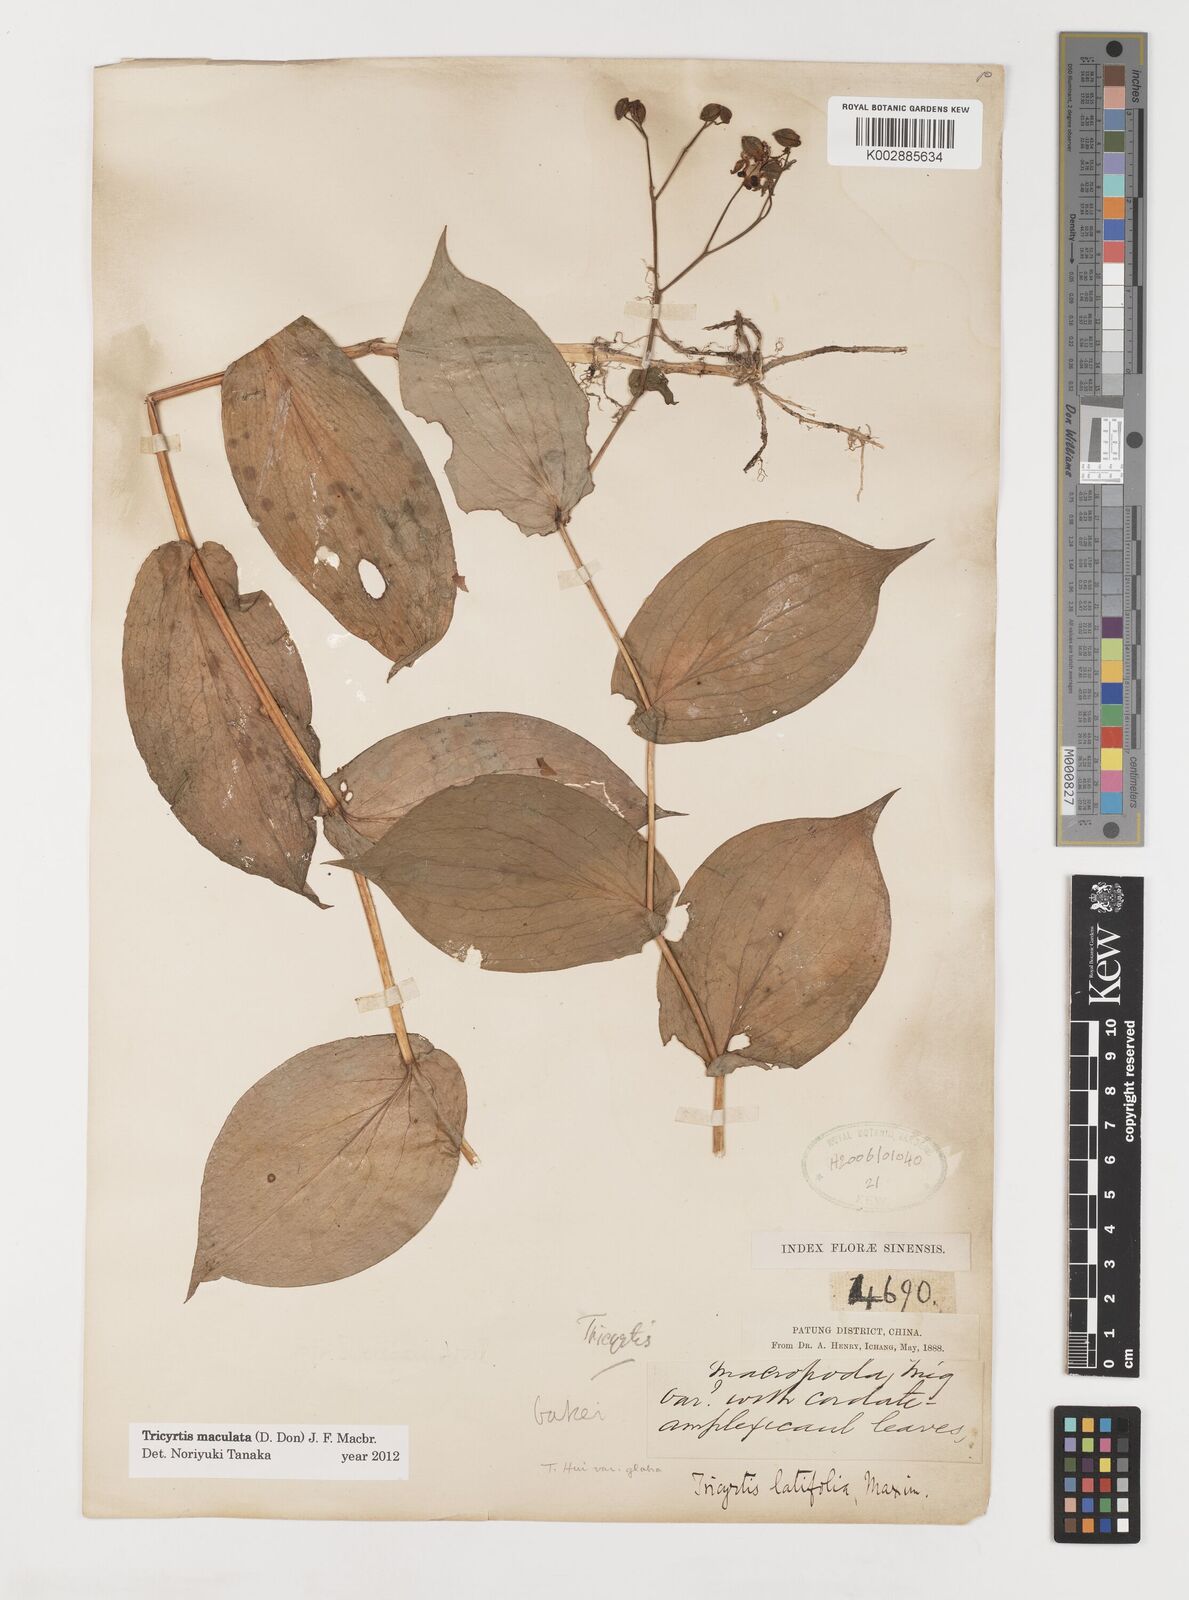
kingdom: Plantae
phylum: Tracheophyta
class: Liliopsida
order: Liliales
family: Liliaceae
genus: Tricyrtis
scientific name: Tricyrtis maculata
